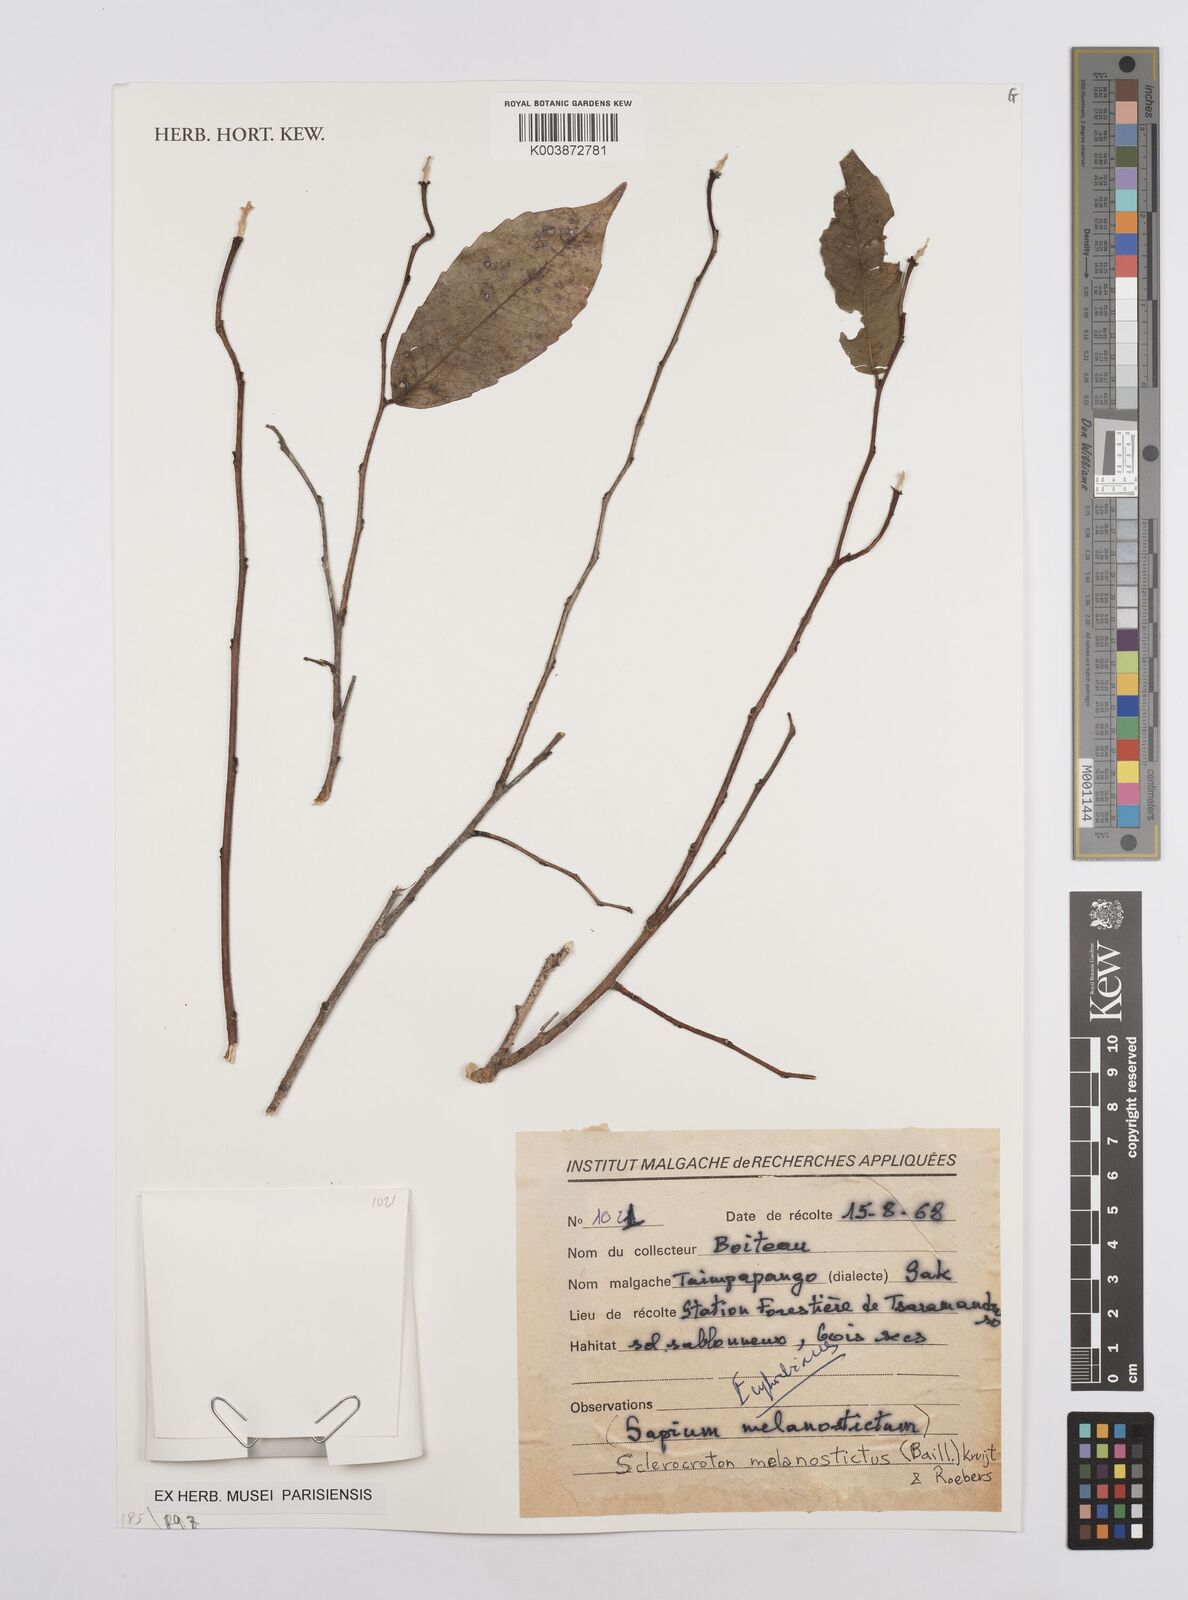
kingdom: Plantae
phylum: Tracheophyta
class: Magnoliopsida
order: Malpighiales
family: Euphorbiaceae
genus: Sclerocroton
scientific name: Sclerocroton melanostictus
